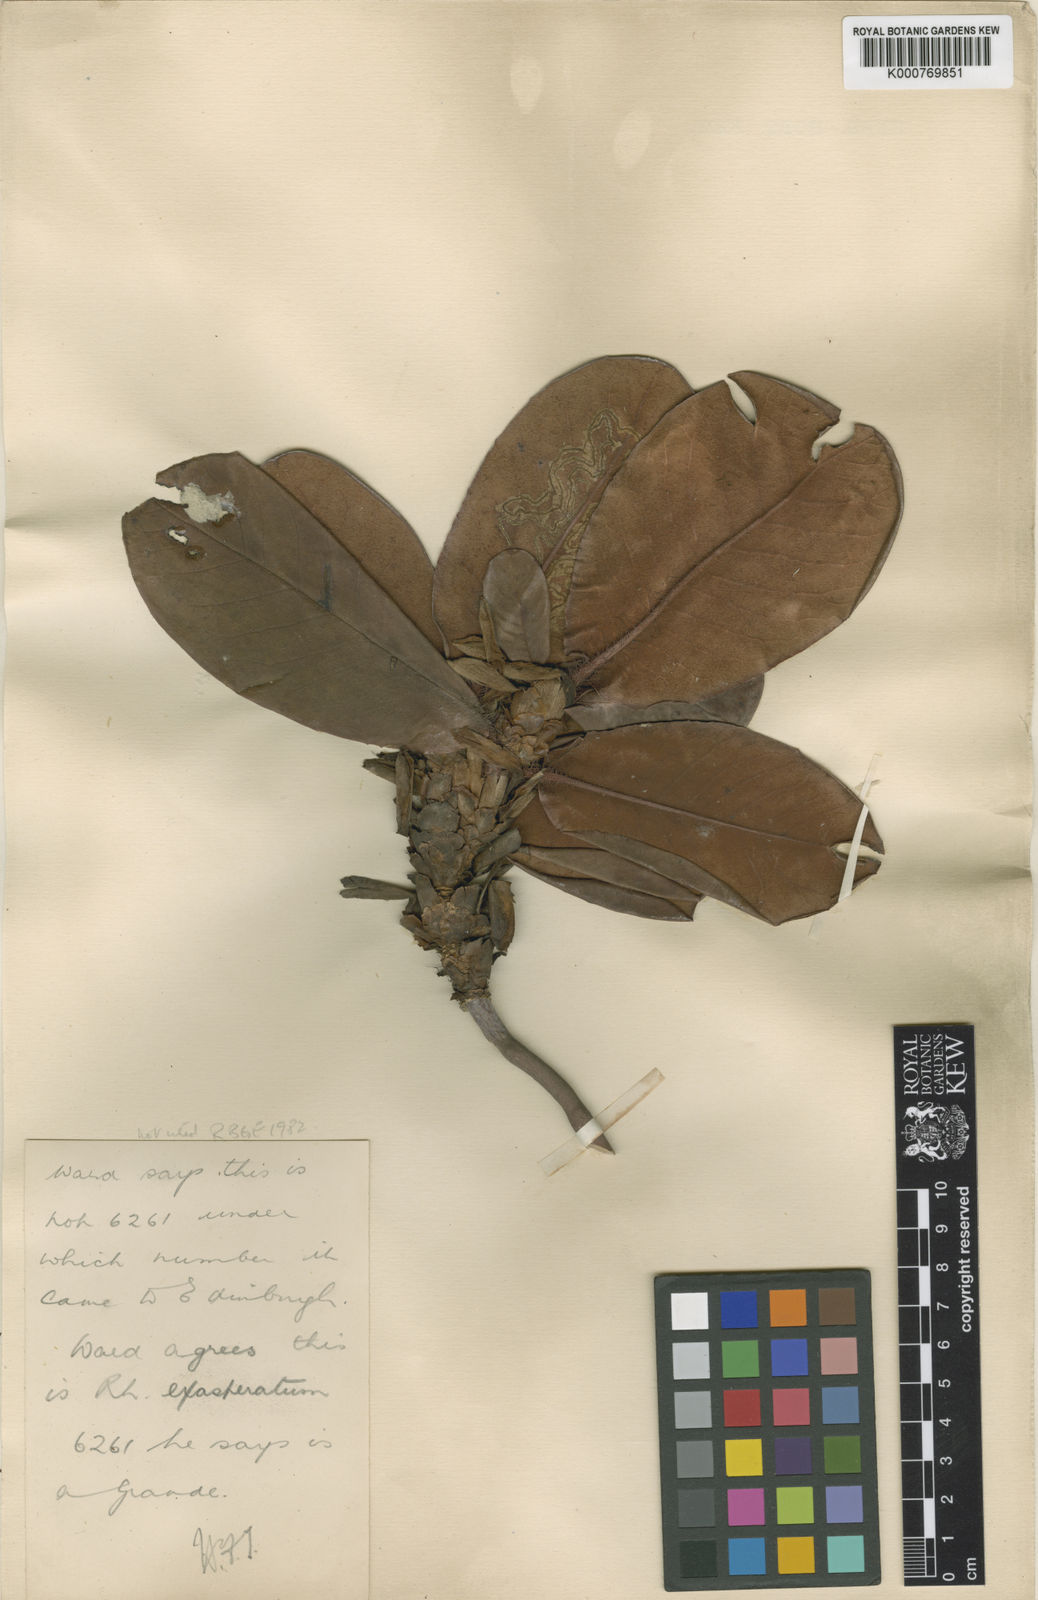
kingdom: Plantae
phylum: Tracheophyta
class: Magnoliopsida
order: Ericales
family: Ericaceae
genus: Rhododendron
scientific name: Rhododendron
